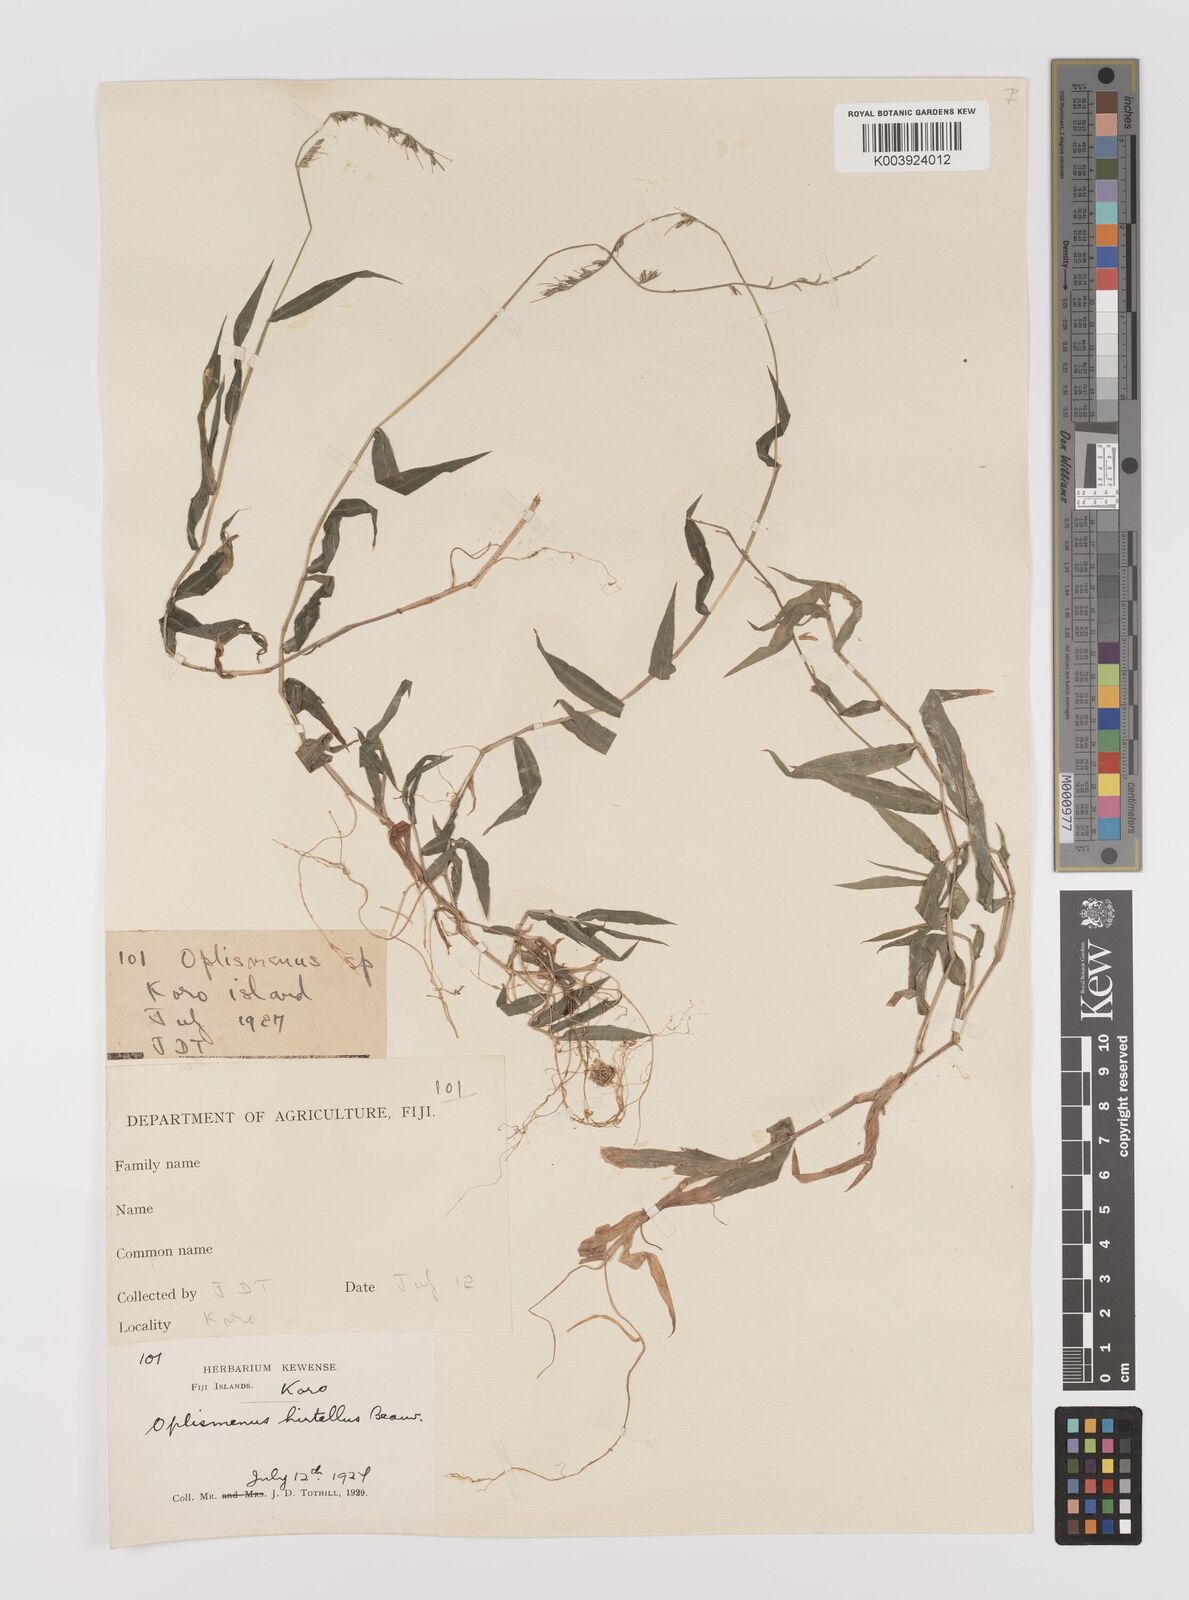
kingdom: Plantae
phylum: Tracheophyta
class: Liliopsida
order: Poales
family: Poaceae
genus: Oplismenus
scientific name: Oplismenus hirtellus
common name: Basketgrass
